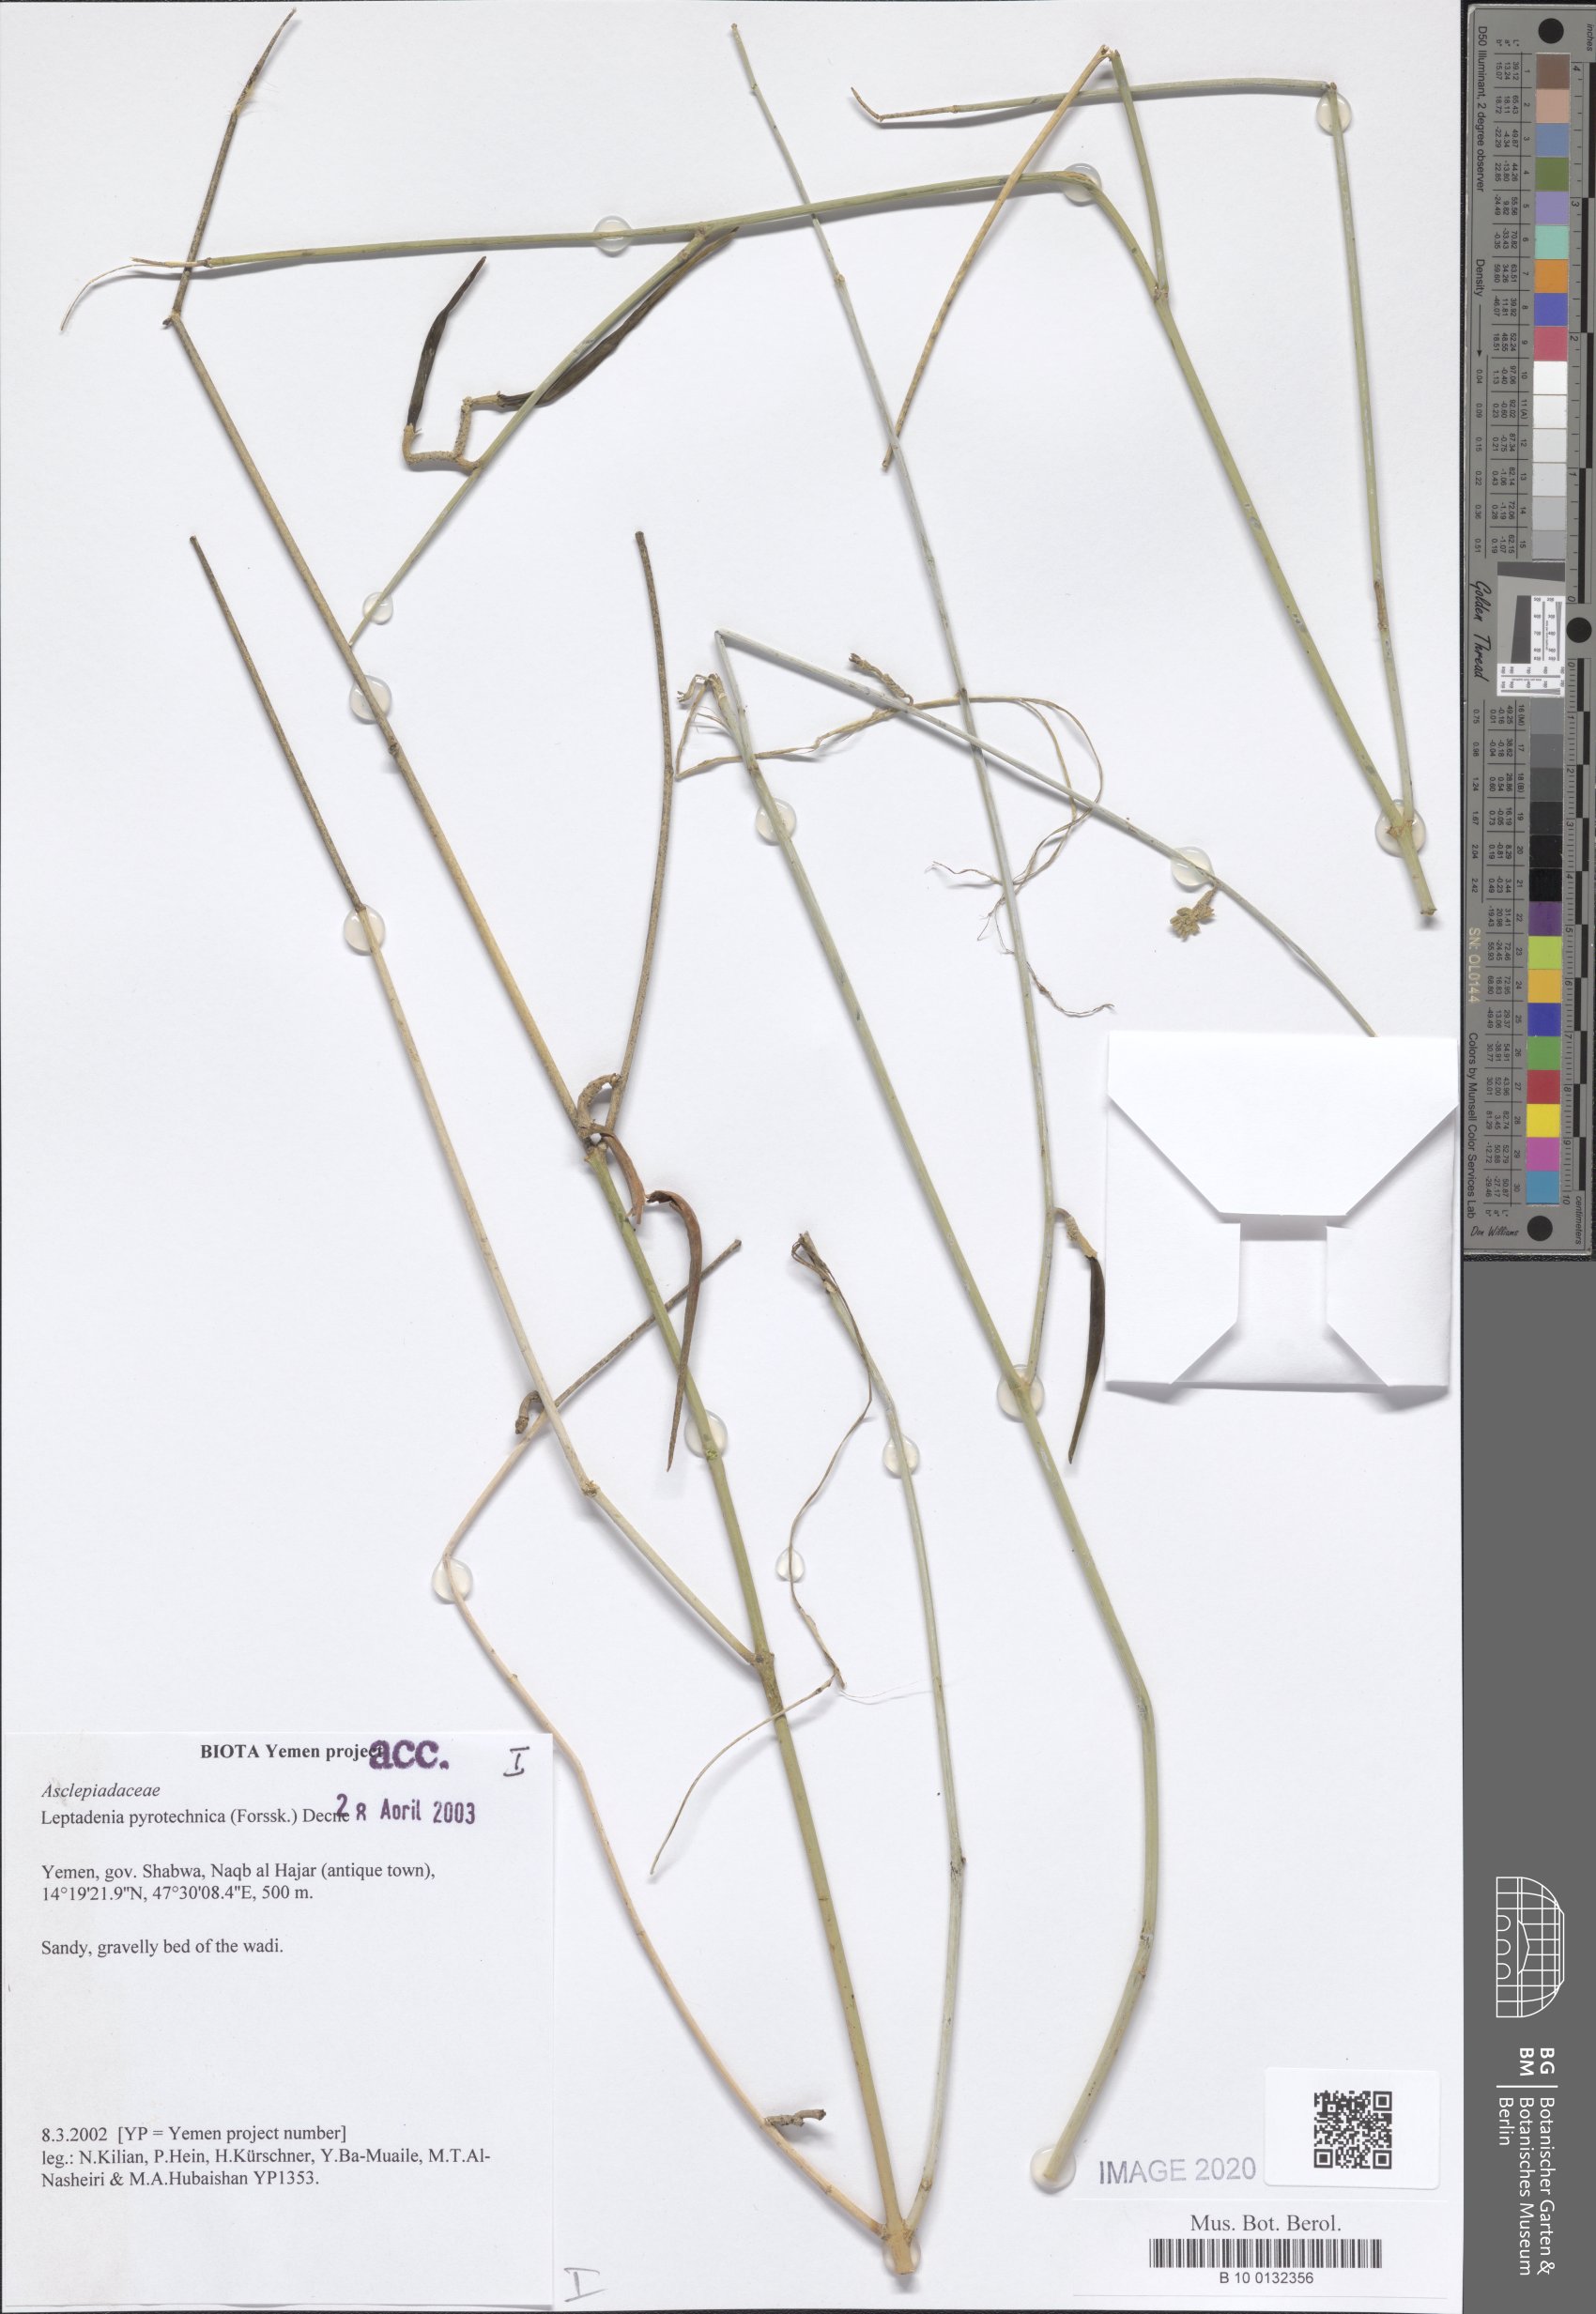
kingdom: Plantae
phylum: Tracheophyta
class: Magnoliopsida
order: Gentianales
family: Apocynaceae
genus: Leptadenia
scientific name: Leptadenia pyrotechnica
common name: Broom brush
